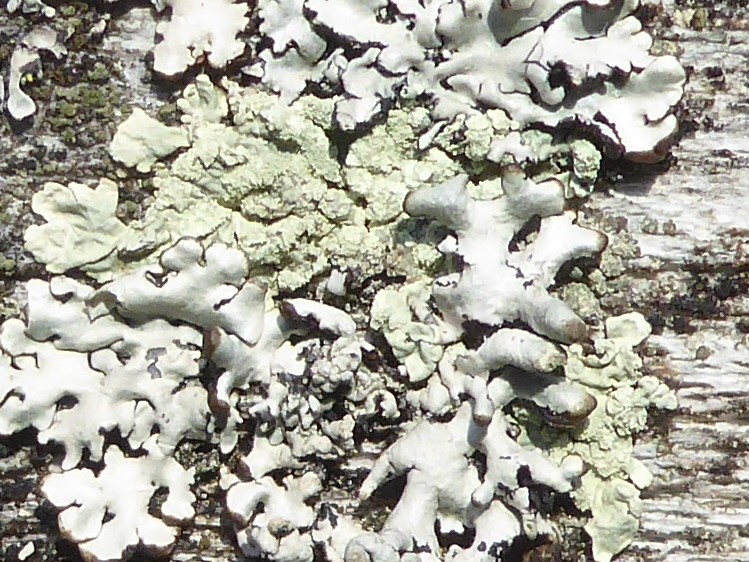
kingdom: Fungi
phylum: Ascomycota
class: Lecanoromycetes
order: Lecanorales
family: Parmeliaceae
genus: Parmeliopsis
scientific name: Parmeliopsis ambigua
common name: gul stolpelav
